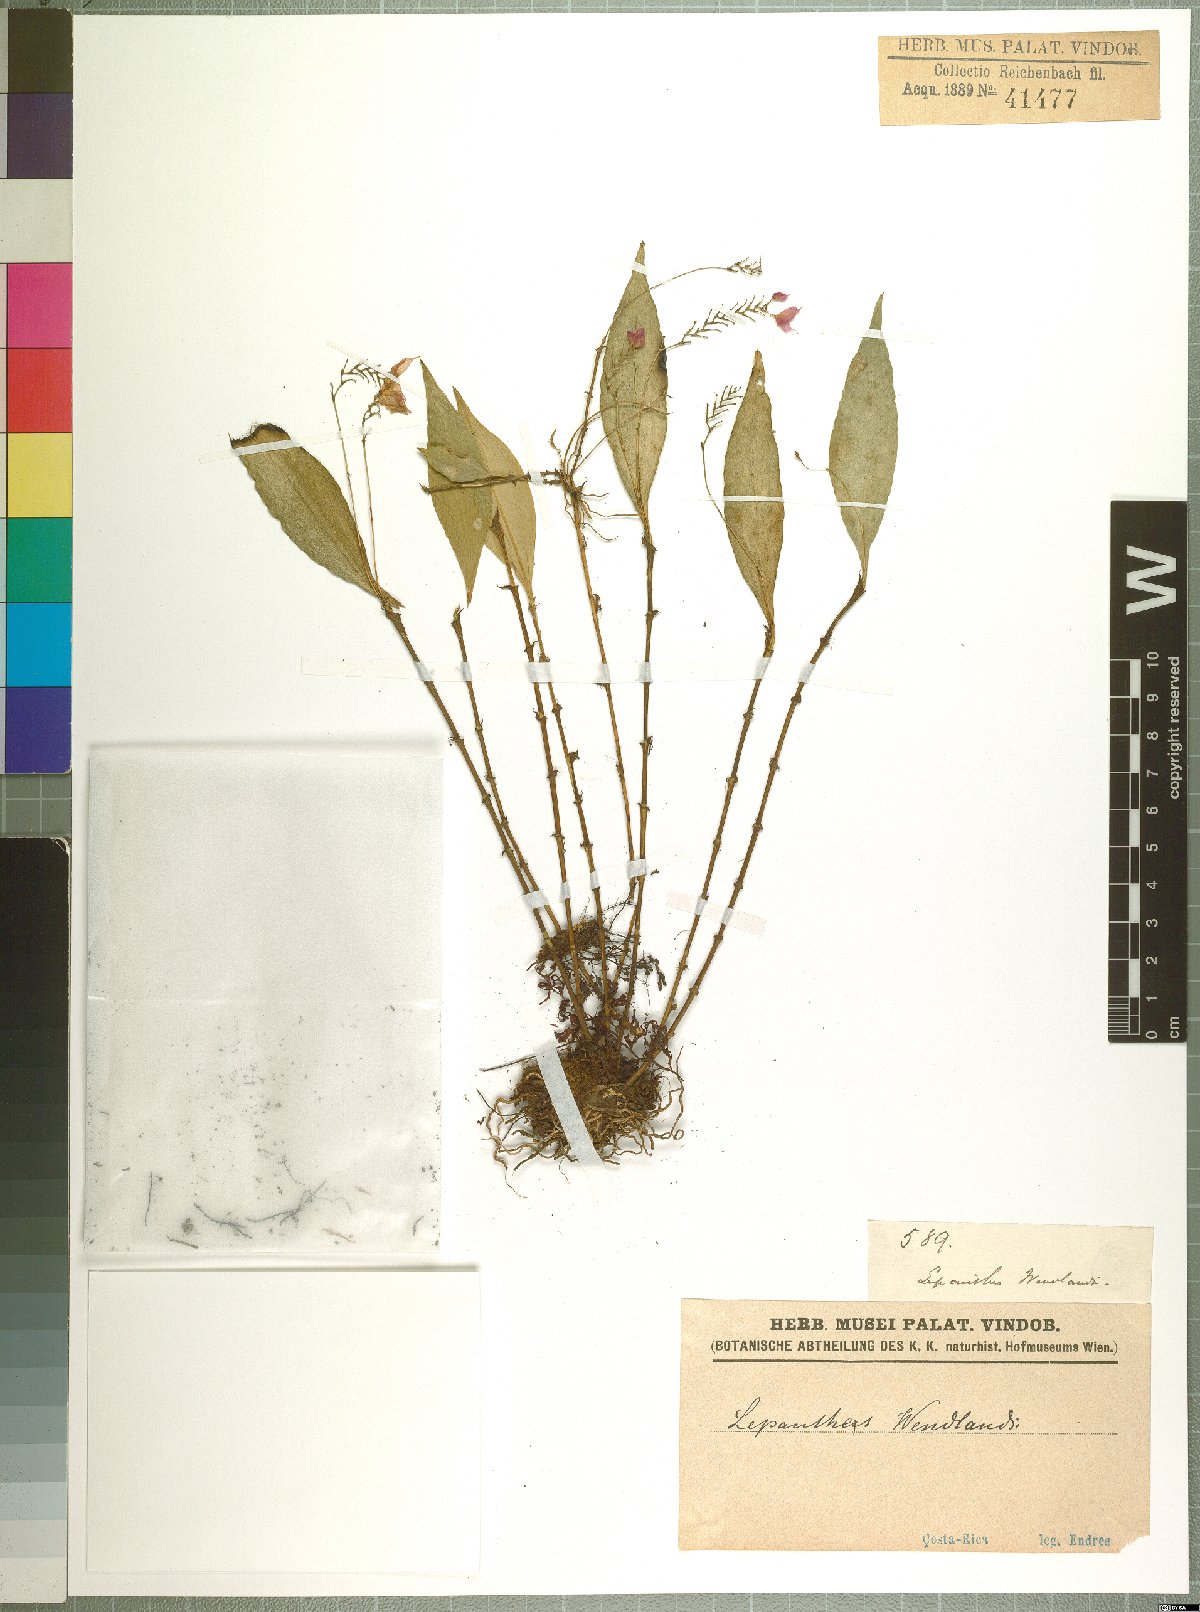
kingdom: Plantae
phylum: Tracheophyta
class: Liliopsida
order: Asparagales
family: Orchidaceae
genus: Lepanthes
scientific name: Lepanthes wendlandii
